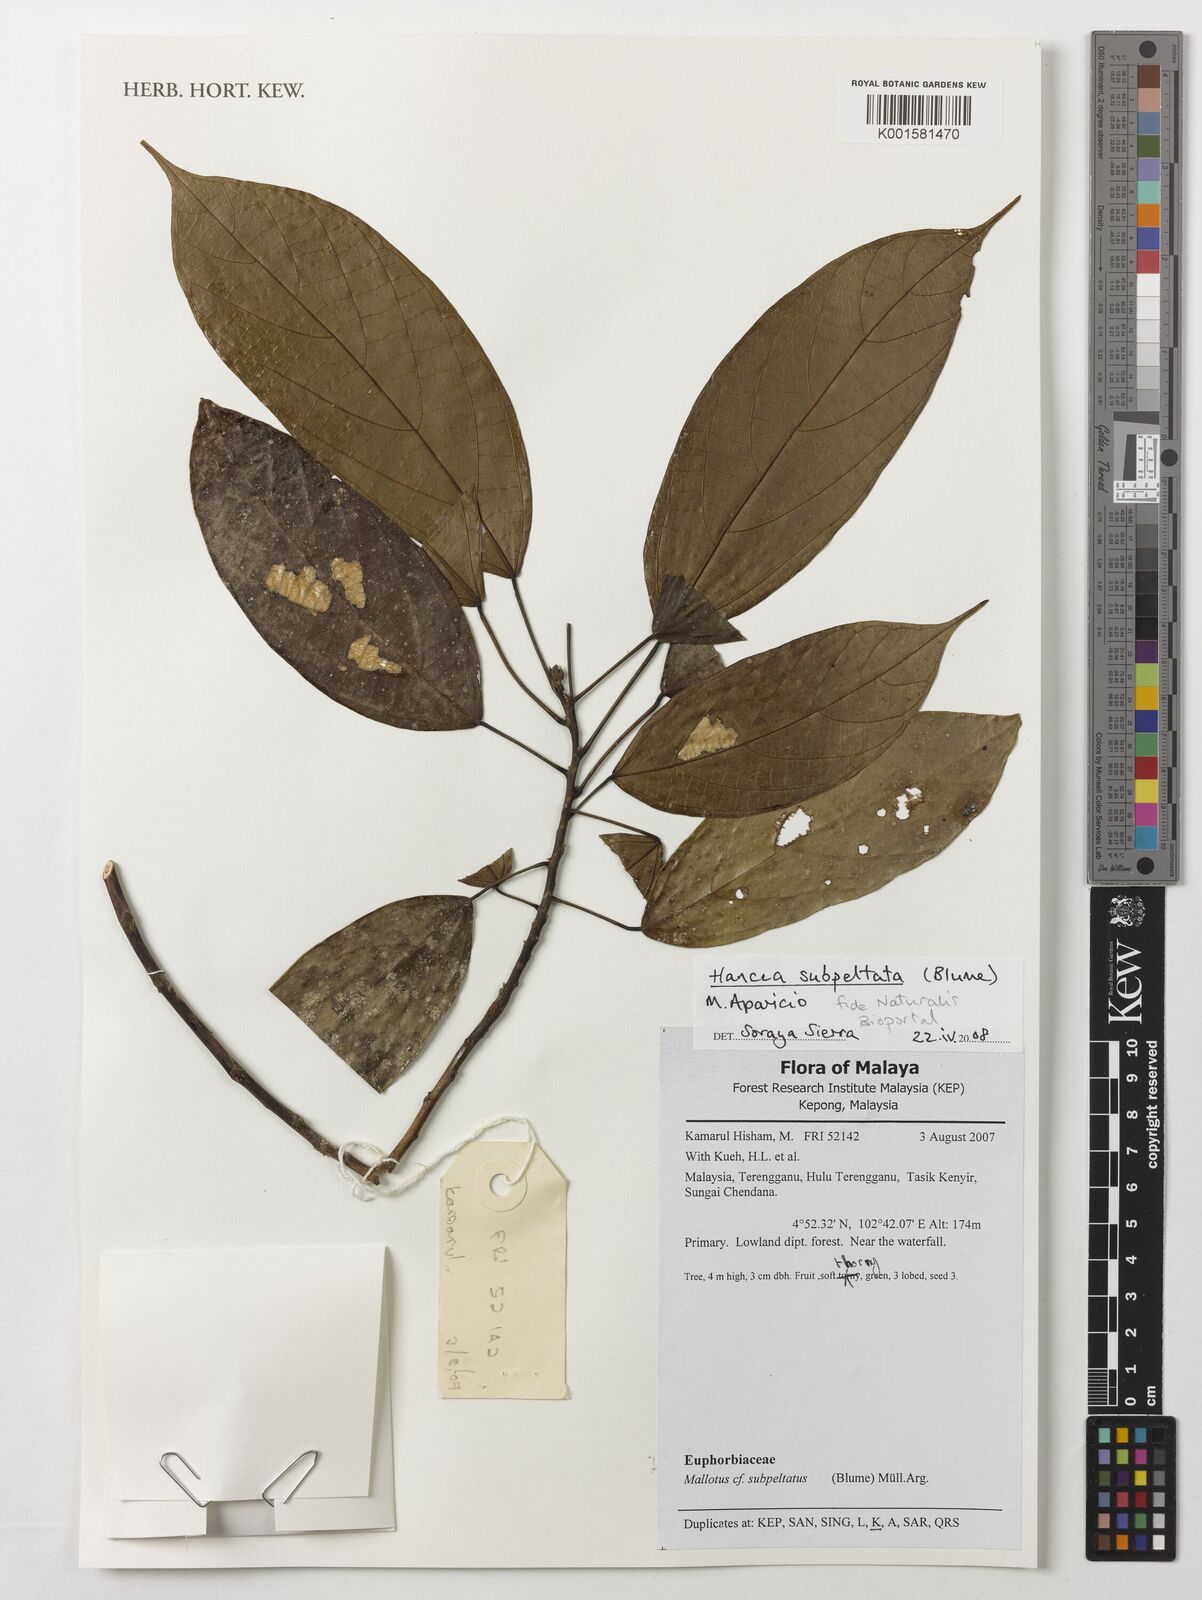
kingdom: Plantae
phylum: Tracheophyta
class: Magnoliopsida
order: Malpighiales
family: Euphorbiaceae
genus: Hancea
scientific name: Hancea subpeltata
